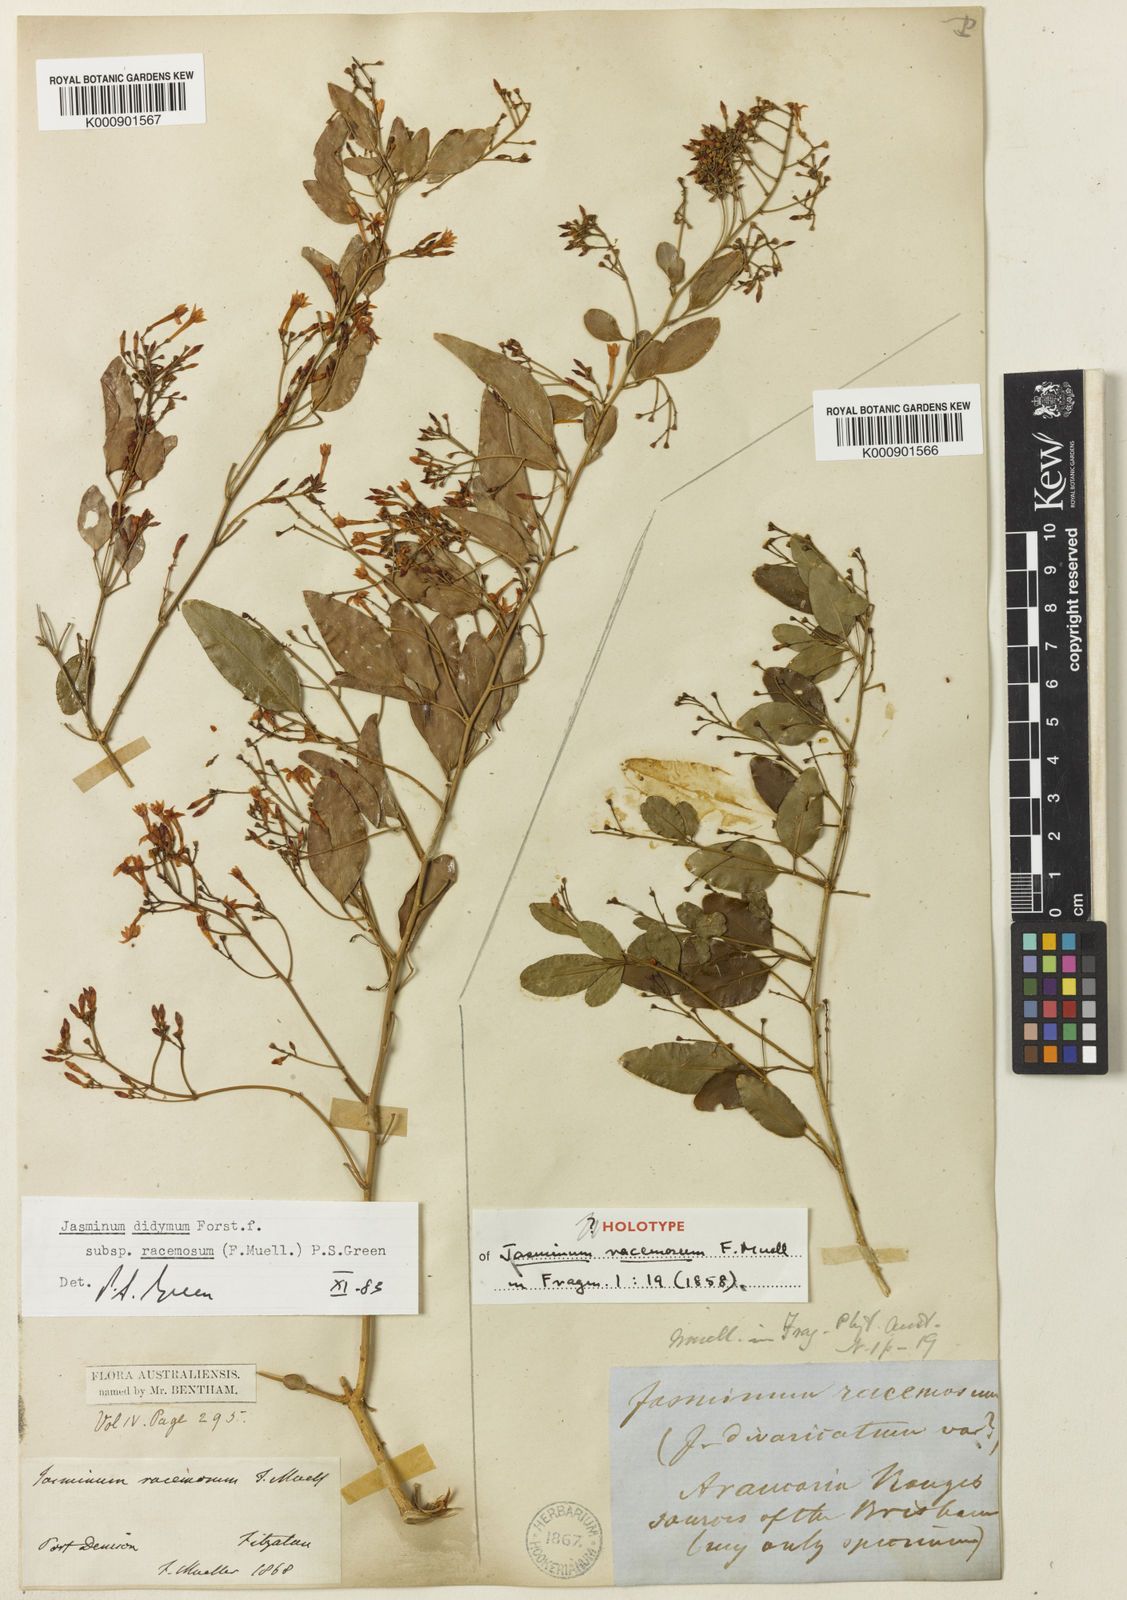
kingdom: Plantae
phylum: Tracheophyta
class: Magnoliopsida
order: Lamiales
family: Oleaceae
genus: Jasminum
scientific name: Jasminum didymum
